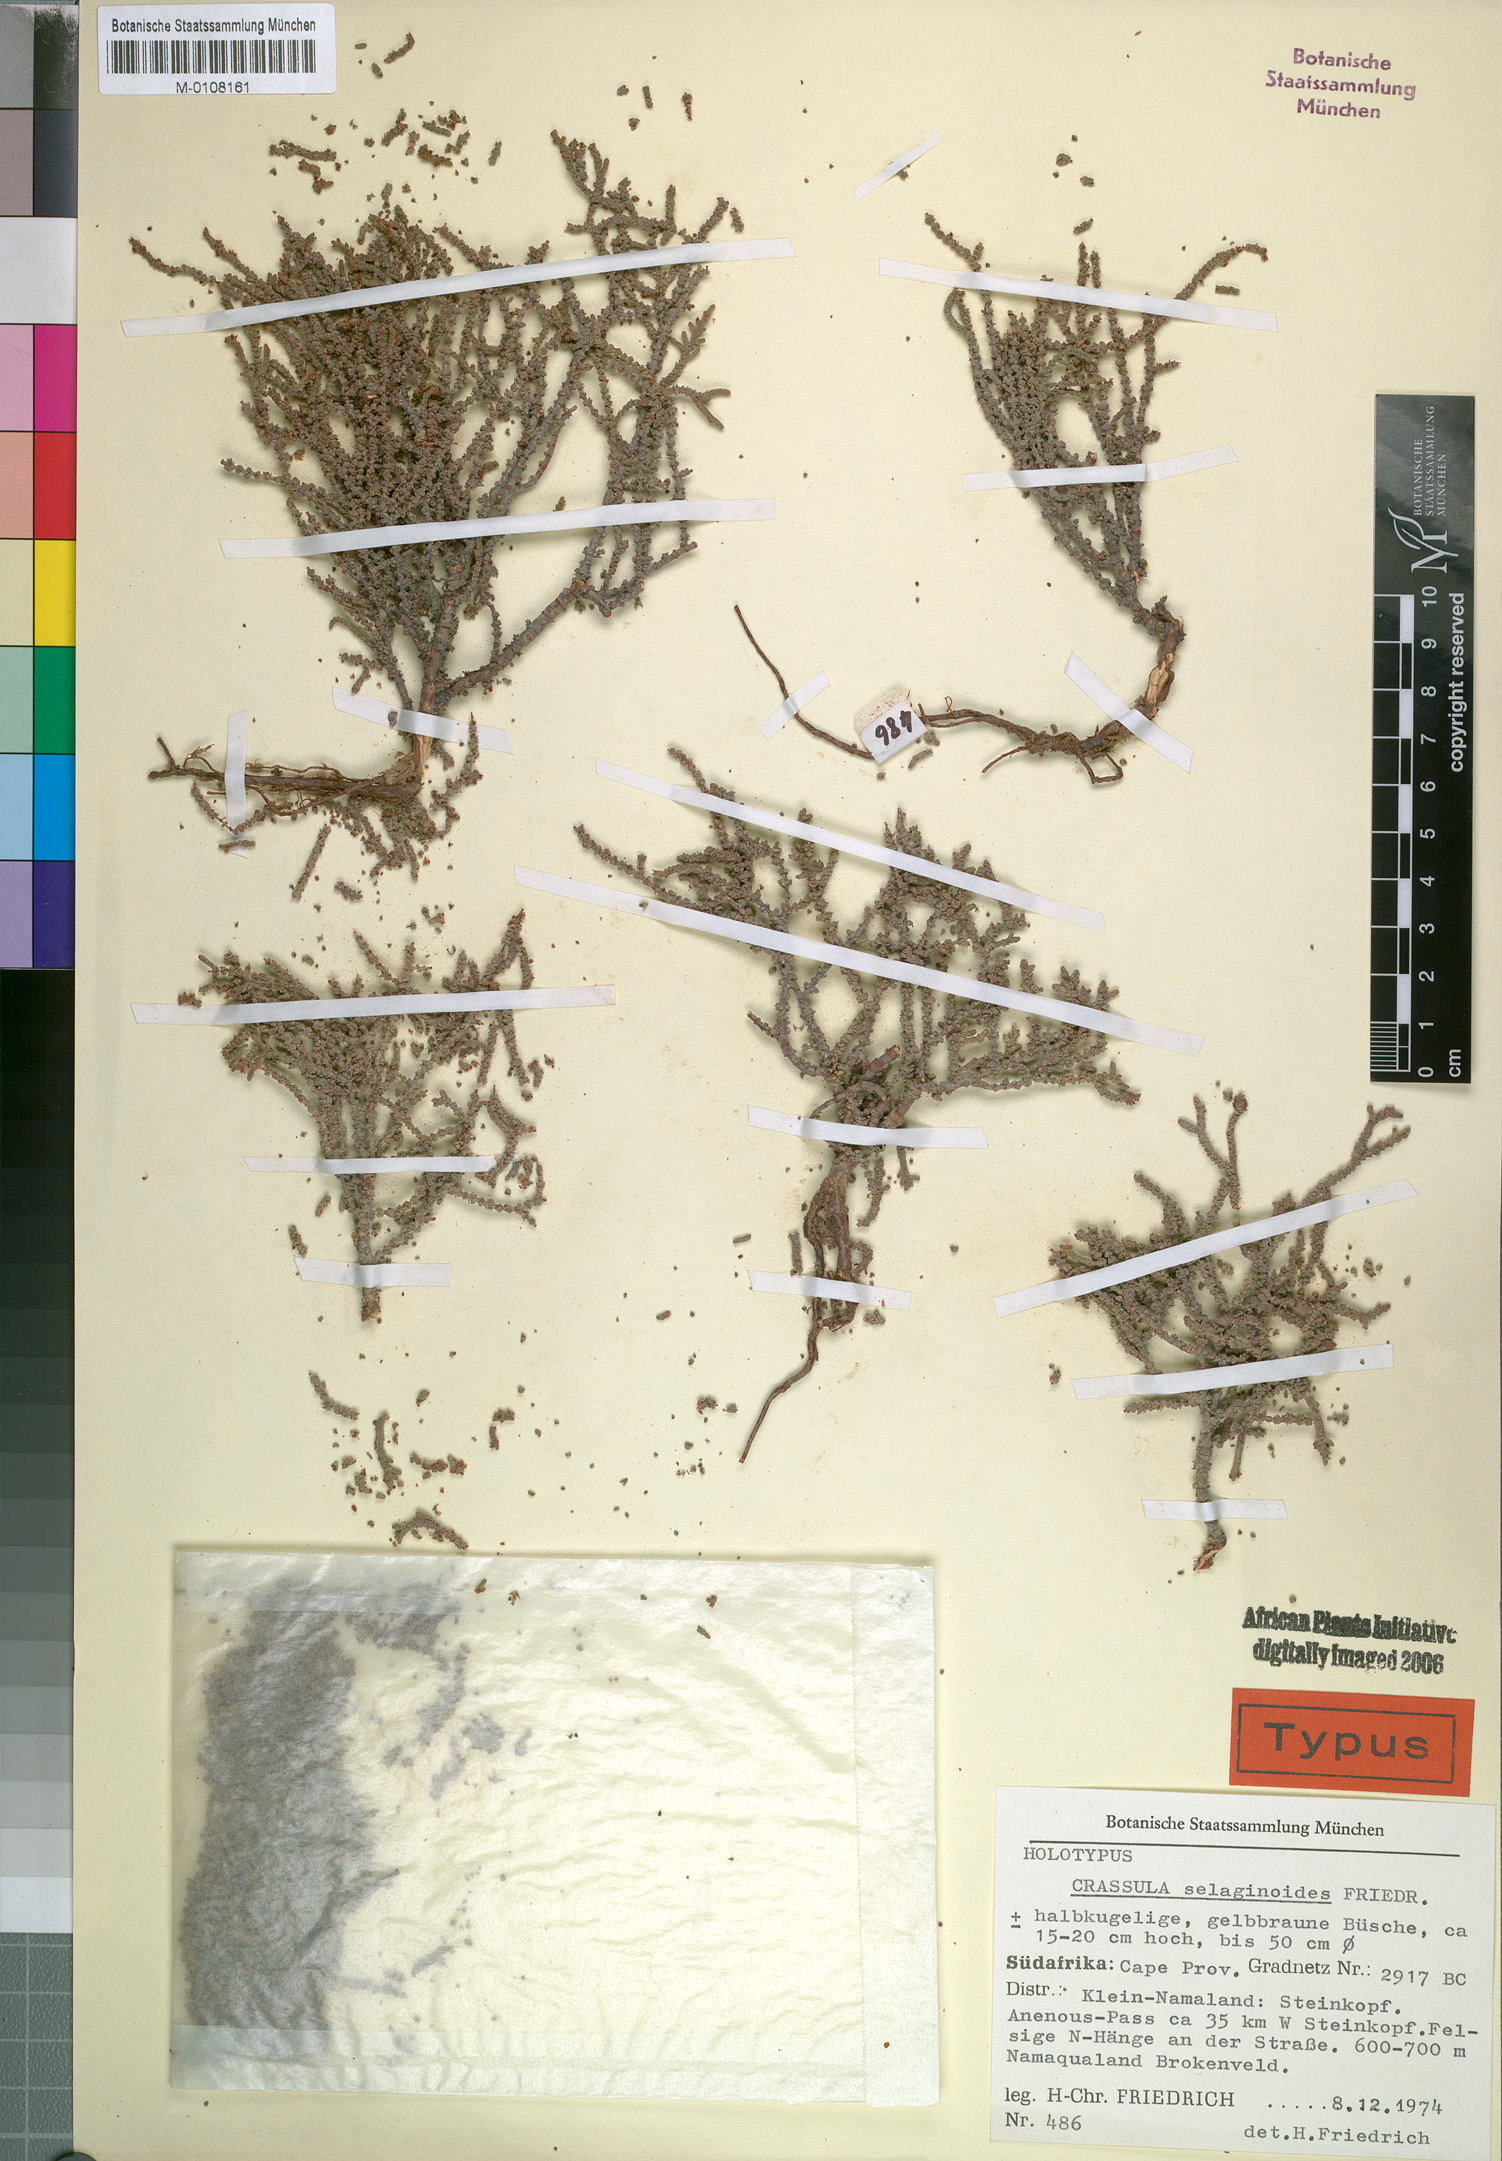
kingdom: Plantae
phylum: Tracheophyta
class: Magnoliopsida
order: Saxifragales
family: Crassulaceae
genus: Crassula
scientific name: Crassula
